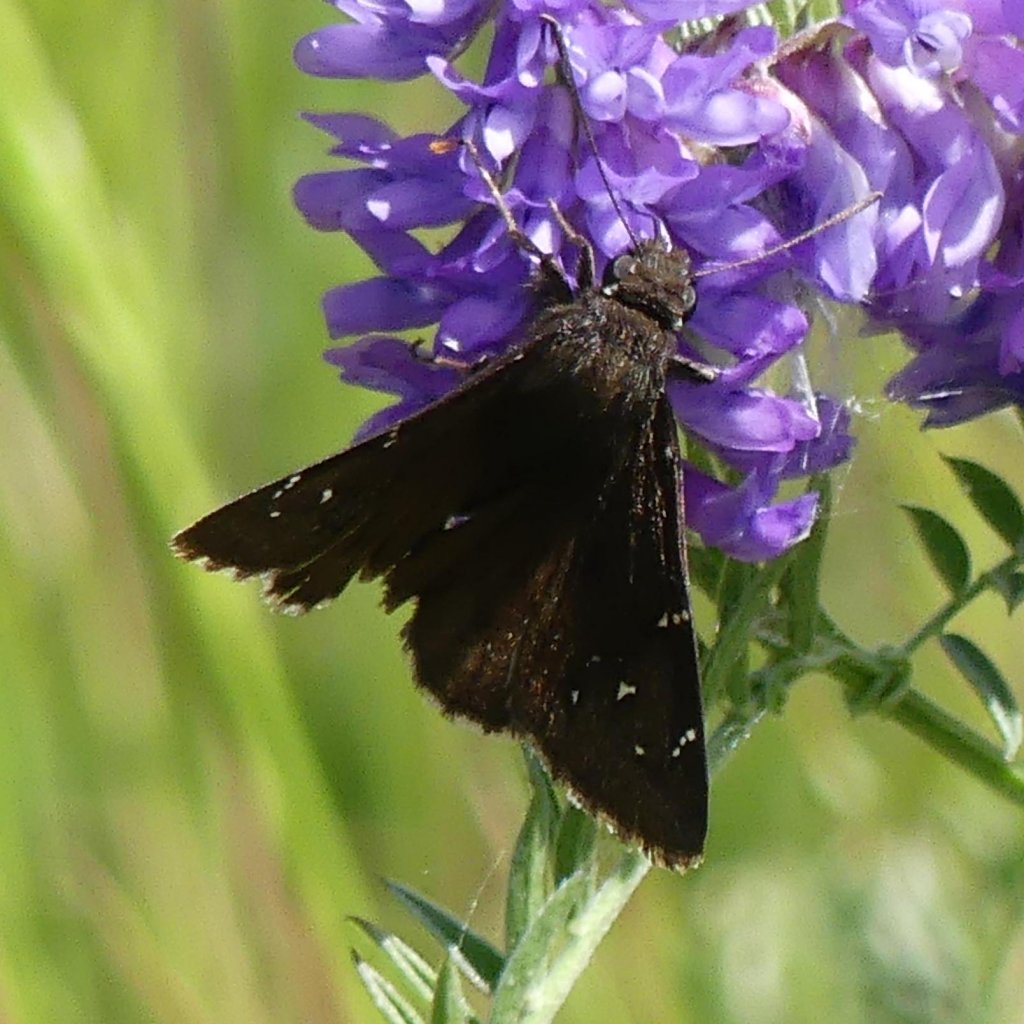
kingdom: Animalia
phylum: Arthropoda
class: Insecta
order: Lepidoptera
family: Hesperiidae
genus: Autochton
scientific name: Autochton
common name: Northern Cloudywing
